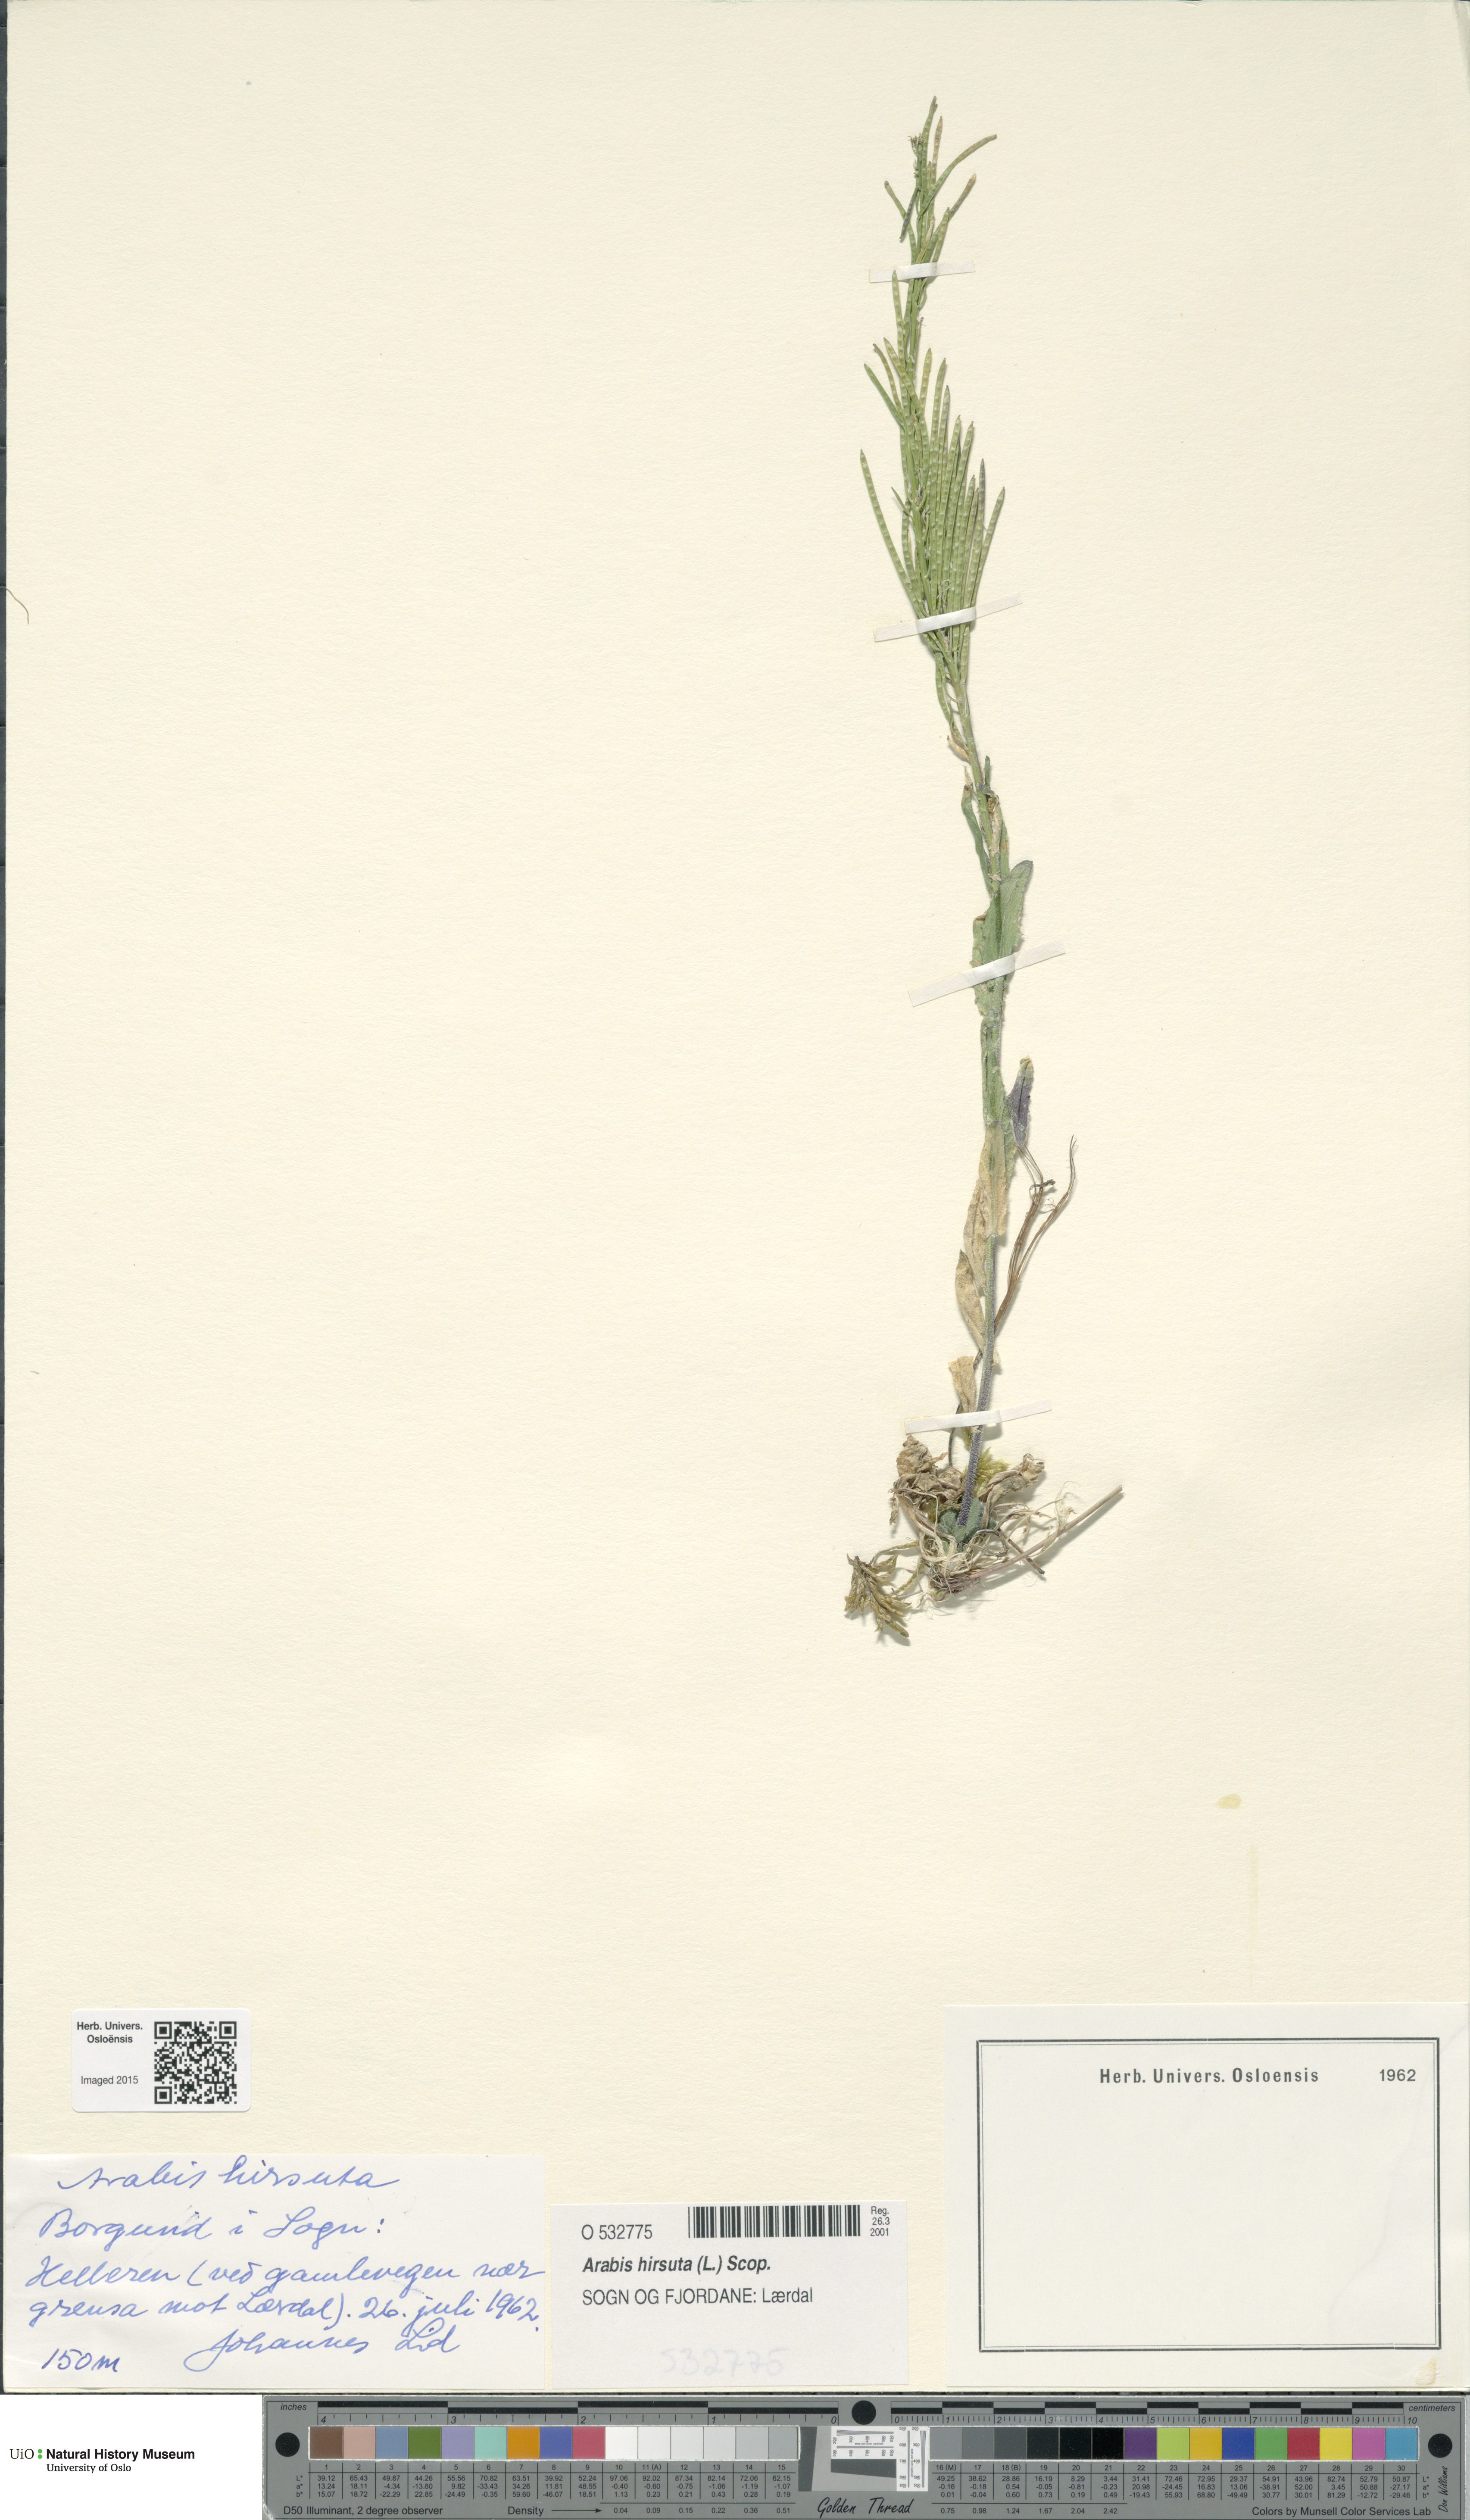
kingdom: Plantae
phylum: Tracheophyta
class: Magnoliopsida
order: Brassicales
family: Brassicaceae
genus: Arabis
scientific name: Arabis hirsuta
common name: Hairy rock-cress
